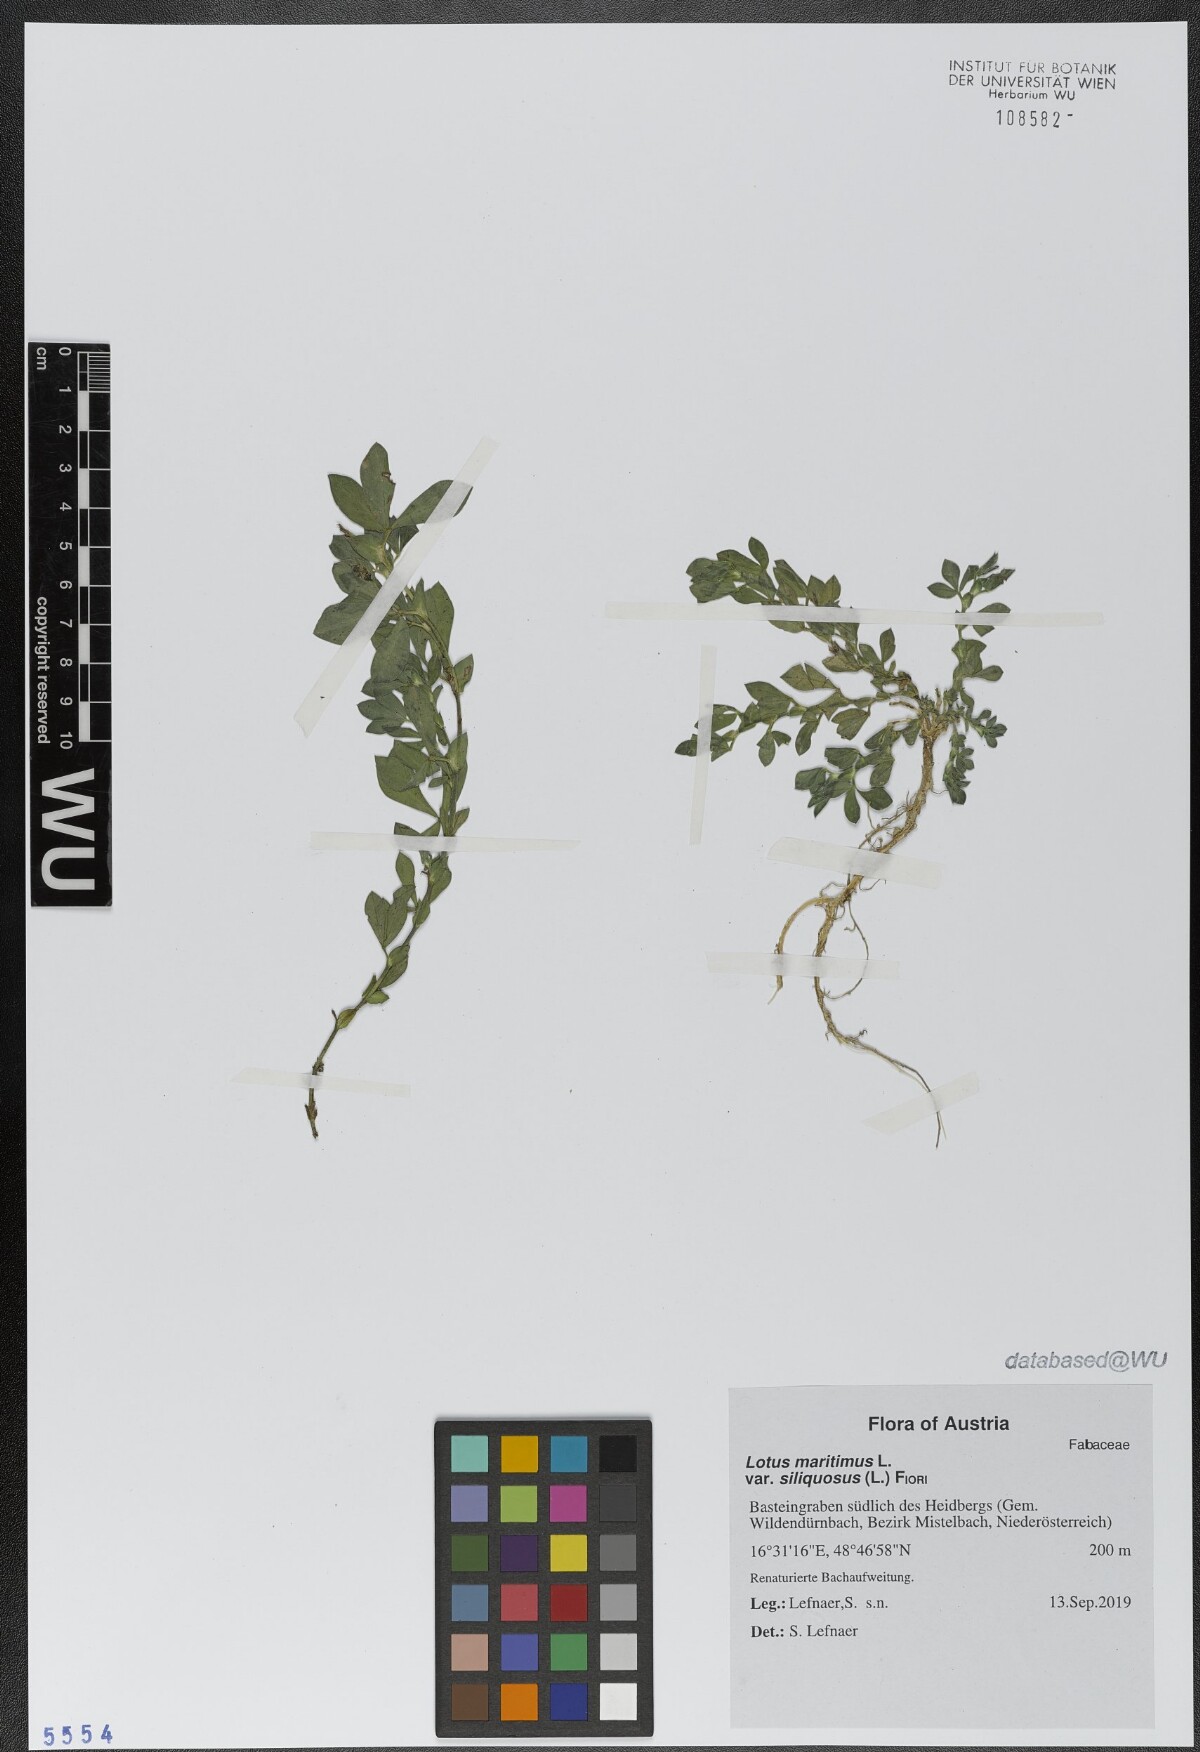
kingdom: Plantae
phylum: Tracheophyta
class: Magnoliopsida
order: Fabales
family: Fabaceae
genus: Lathyrus
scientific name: Lathyrus inconspicuus
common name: Inconspicuous pea
